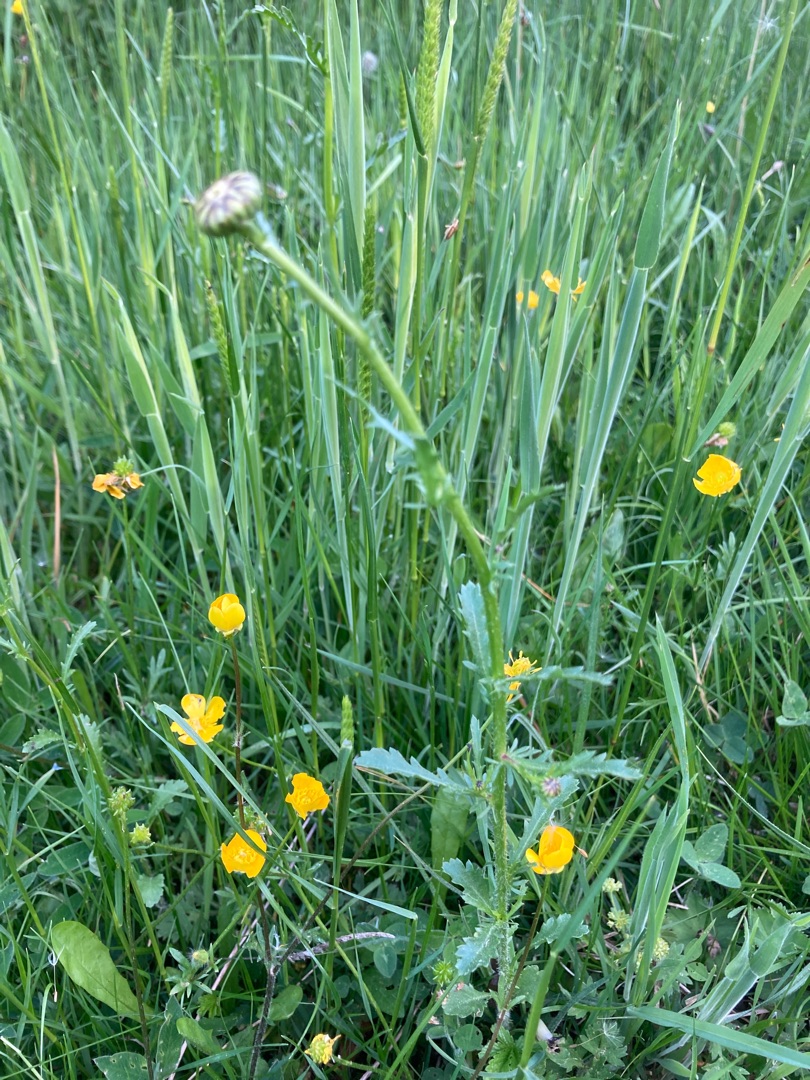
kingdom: Plantae
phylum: Tracheophyta
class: Magnoliopsida
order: Asterales
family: Asteraceae
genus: Leucanthemum
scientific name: Leucanthemum vulgare
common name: Hvid okseøje
